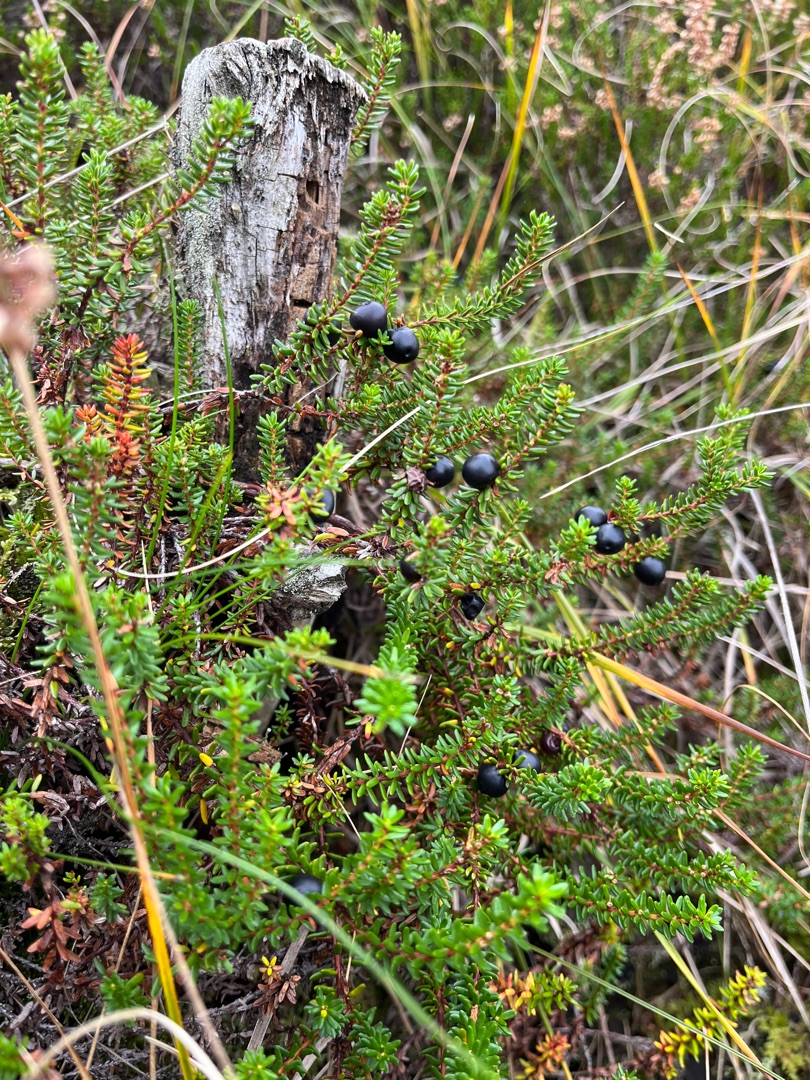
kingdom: Plantae
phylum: Tracheophyta
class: Magnoliopsida
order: Ericales
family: Ericaceae
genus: Empetrum
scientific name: Empetrum nigrum
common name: Revling
